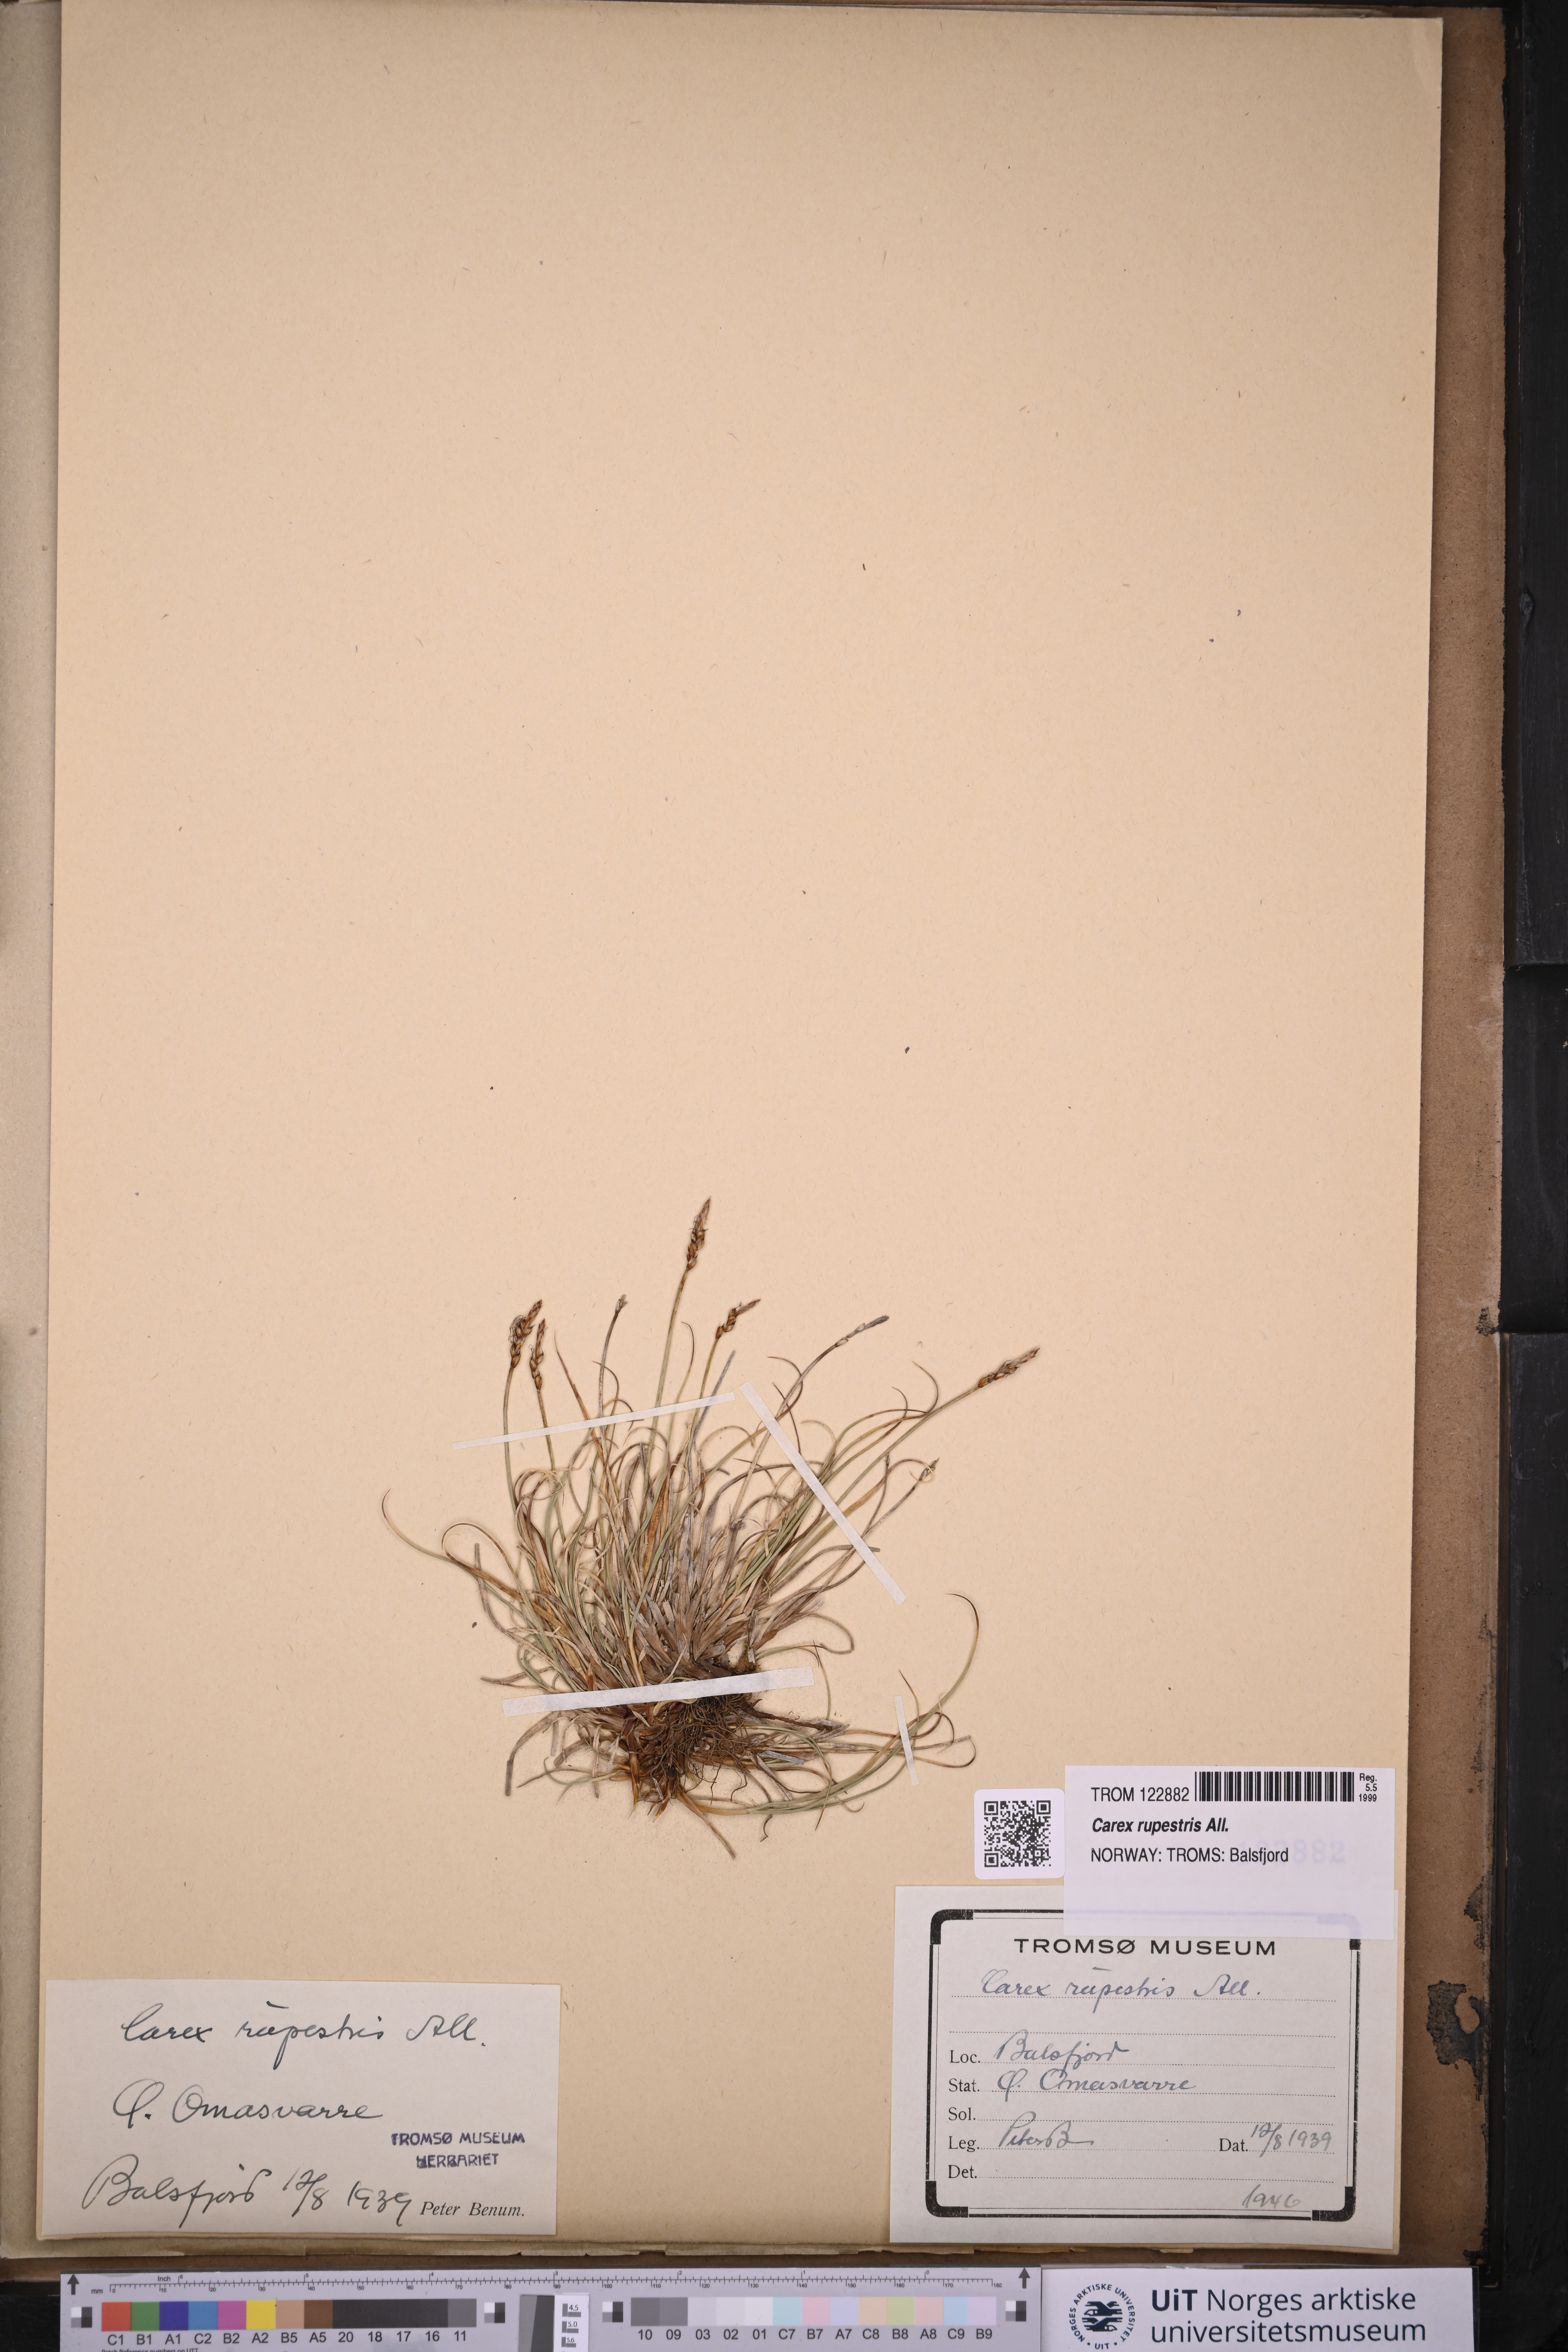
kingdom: Plantae
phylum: Tracheophyta
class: Liliopsida
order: Poales
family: Cyperaceae
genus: Carex
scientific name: Carex rupestris
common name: Rock sedge
